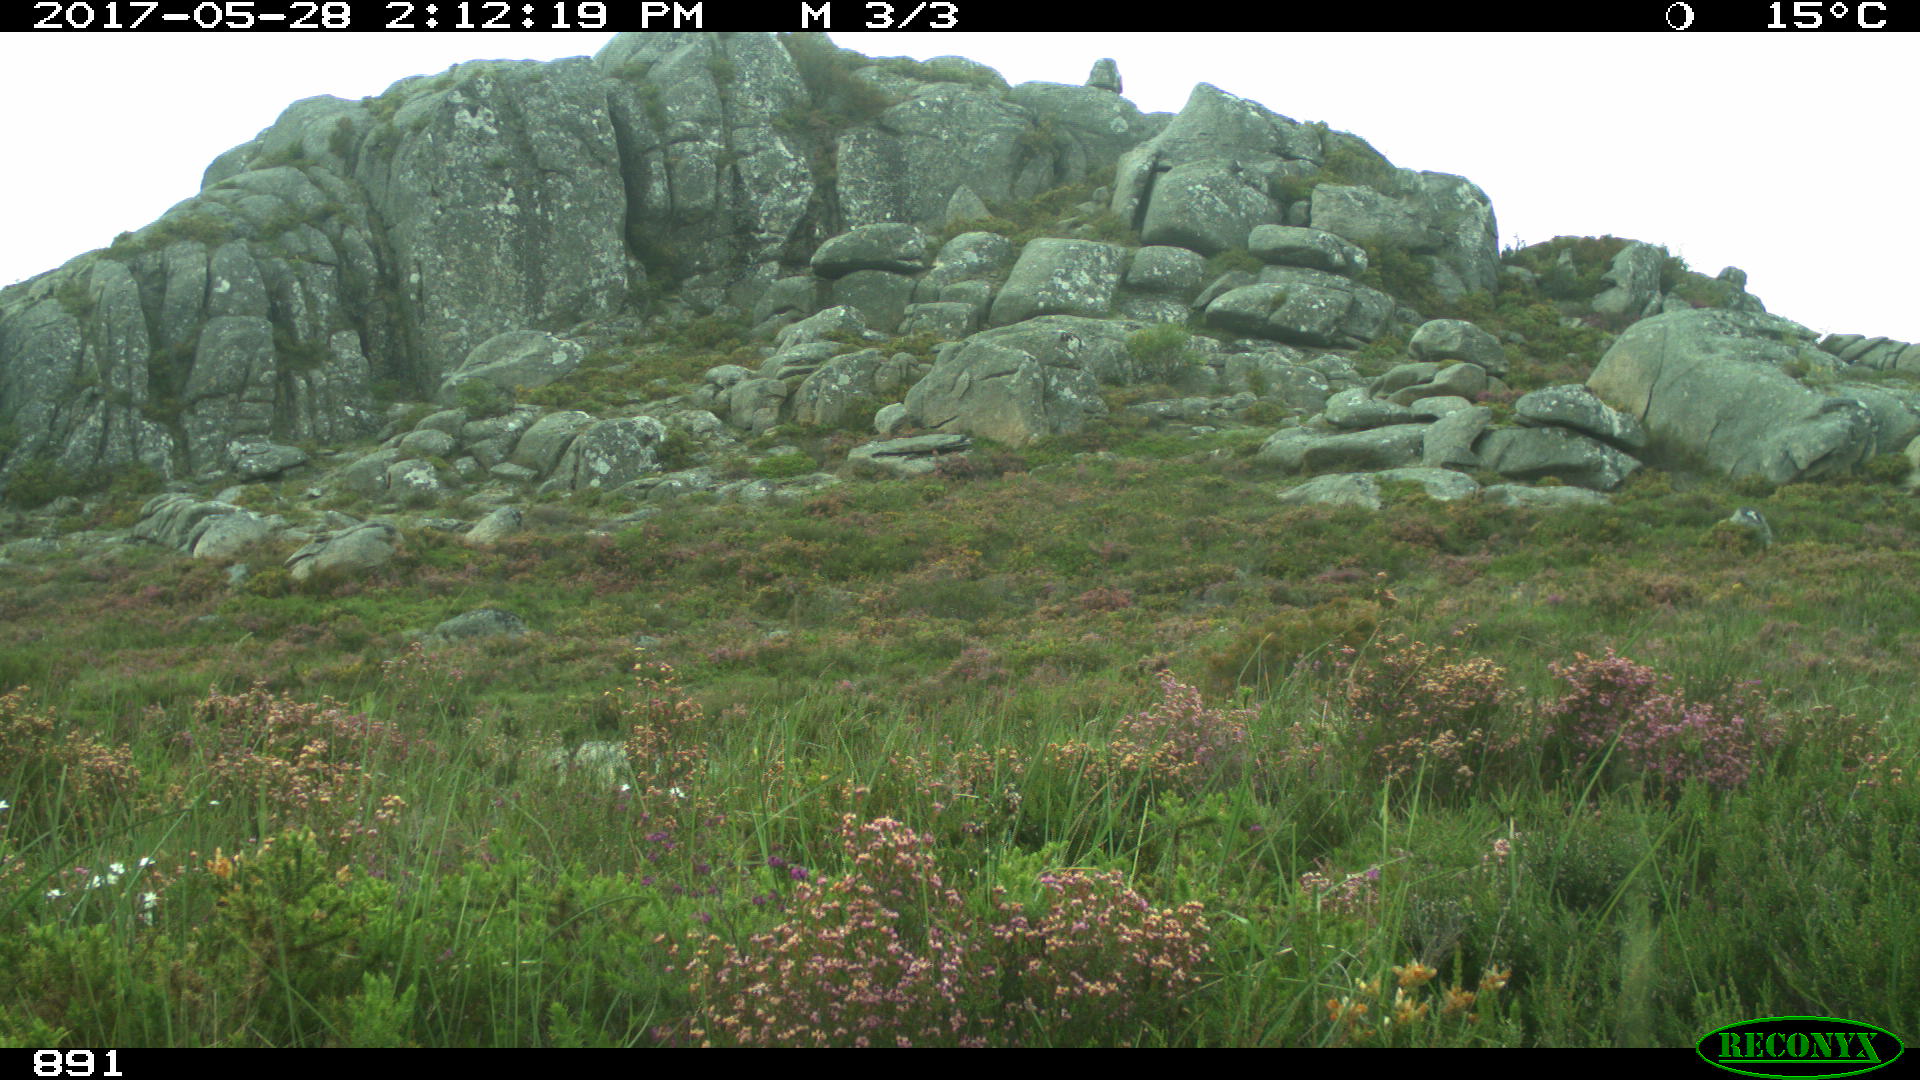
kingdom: Animalia
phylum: Chordata
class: Mammalia
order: Perissodactyla
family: Equidae
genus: Equus
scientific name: Equus caballus
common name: Horse
